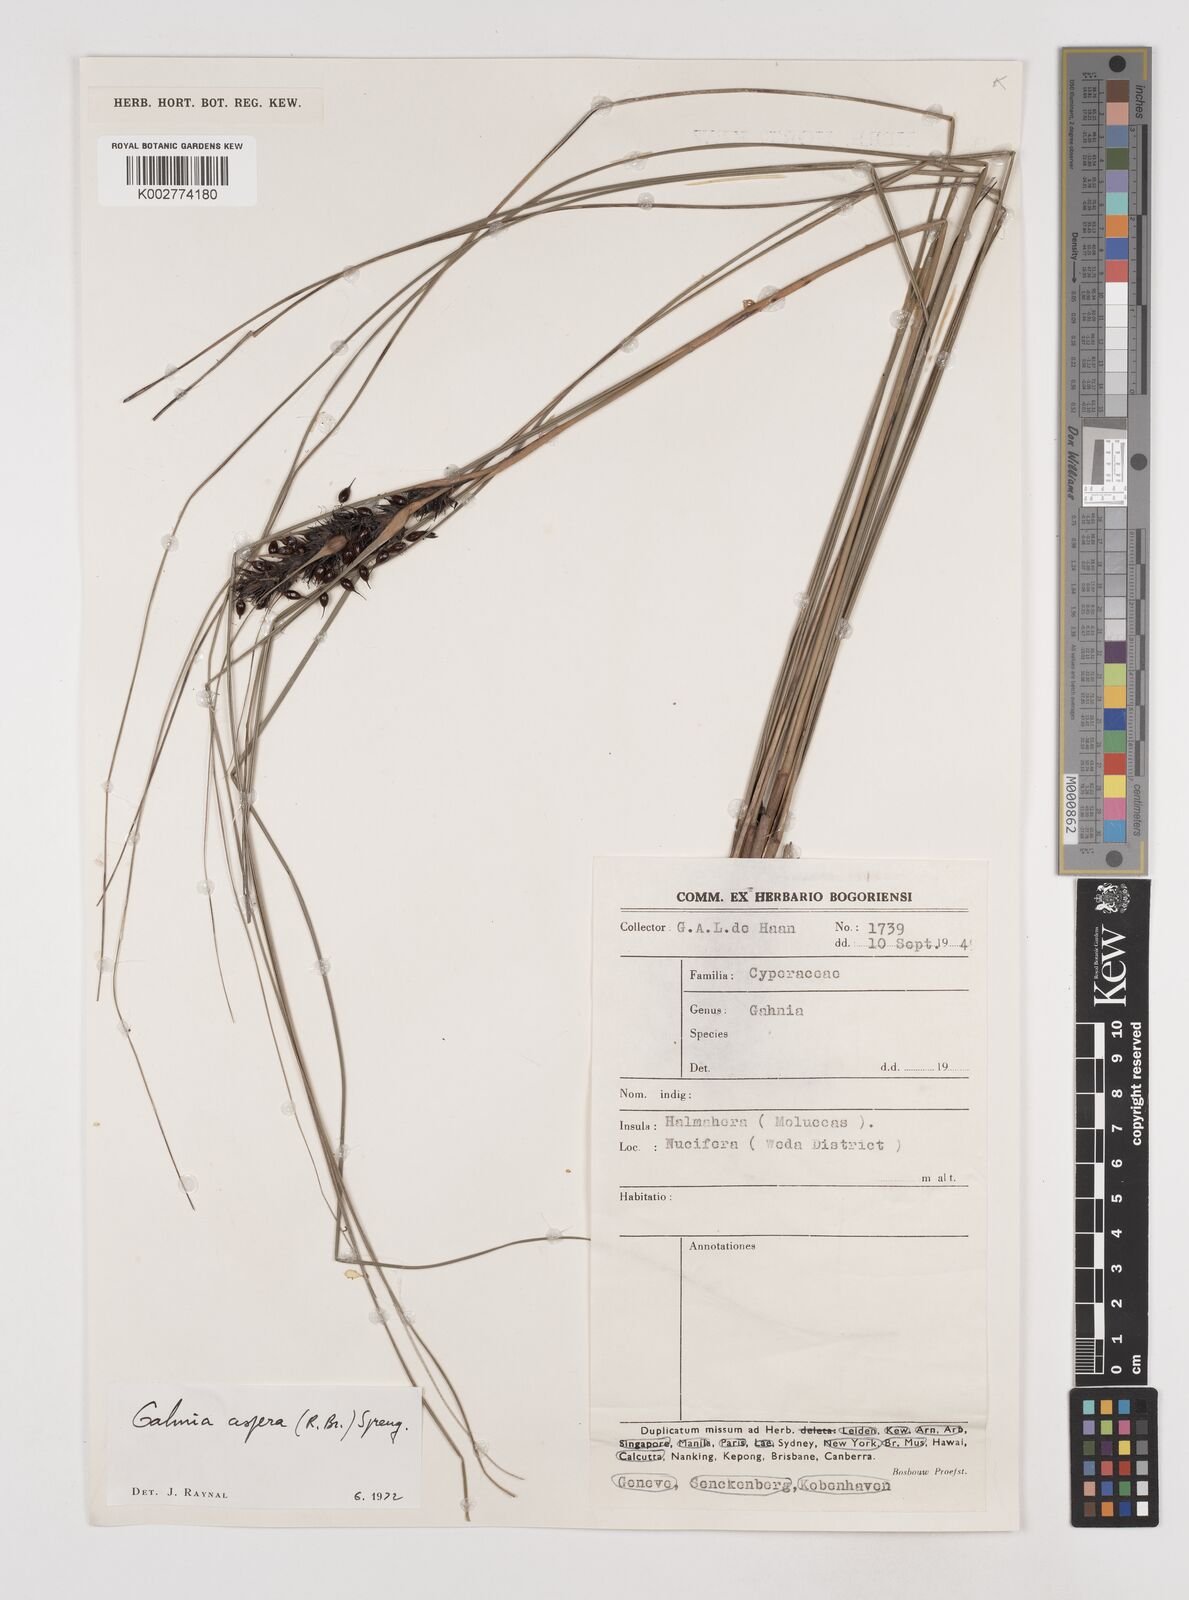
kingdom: Plantae
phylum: Tracheophyta
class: Liliopsida
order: Poales
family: Cyperaceae
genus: Gahnia
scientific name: Gahnia aspera
